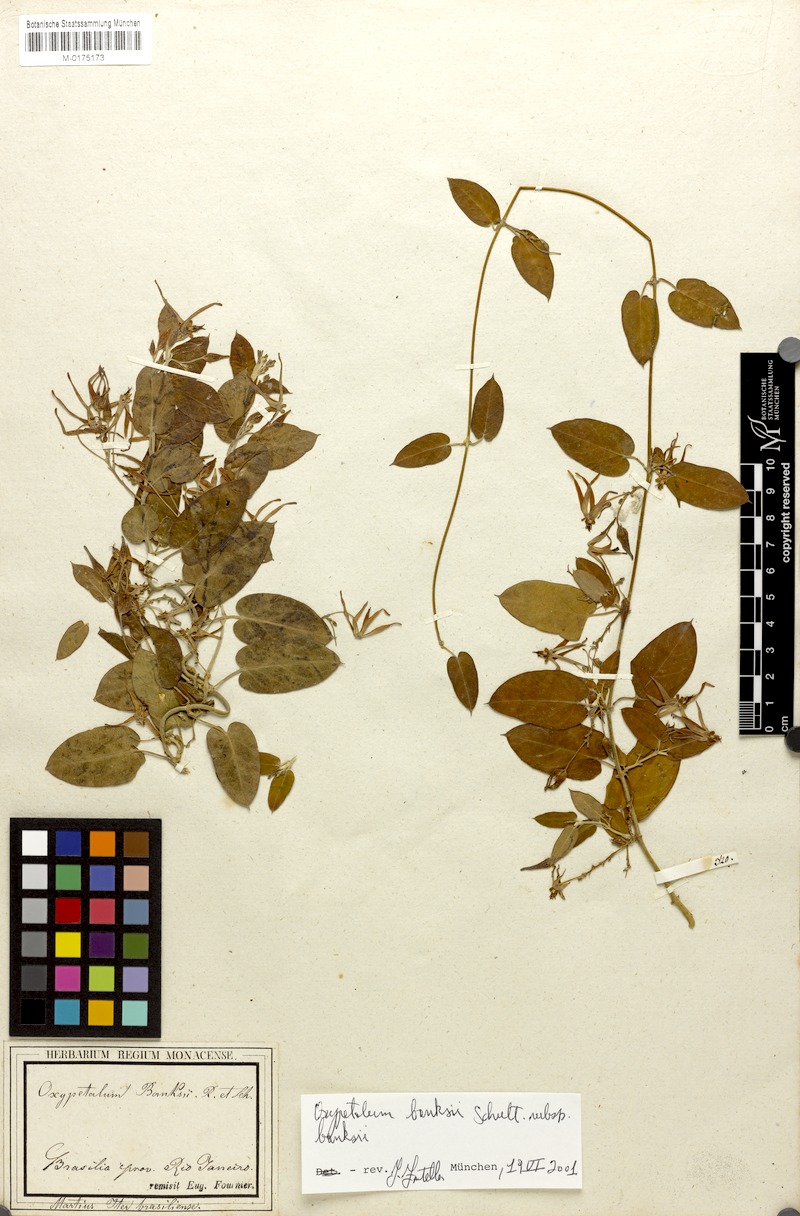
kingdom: Plantae
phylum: Tracheophyta
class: Magnoliopsida
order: Gentianales
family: Apocynaceae
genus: Oxypetalum
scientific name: Oxypetalum banksii
